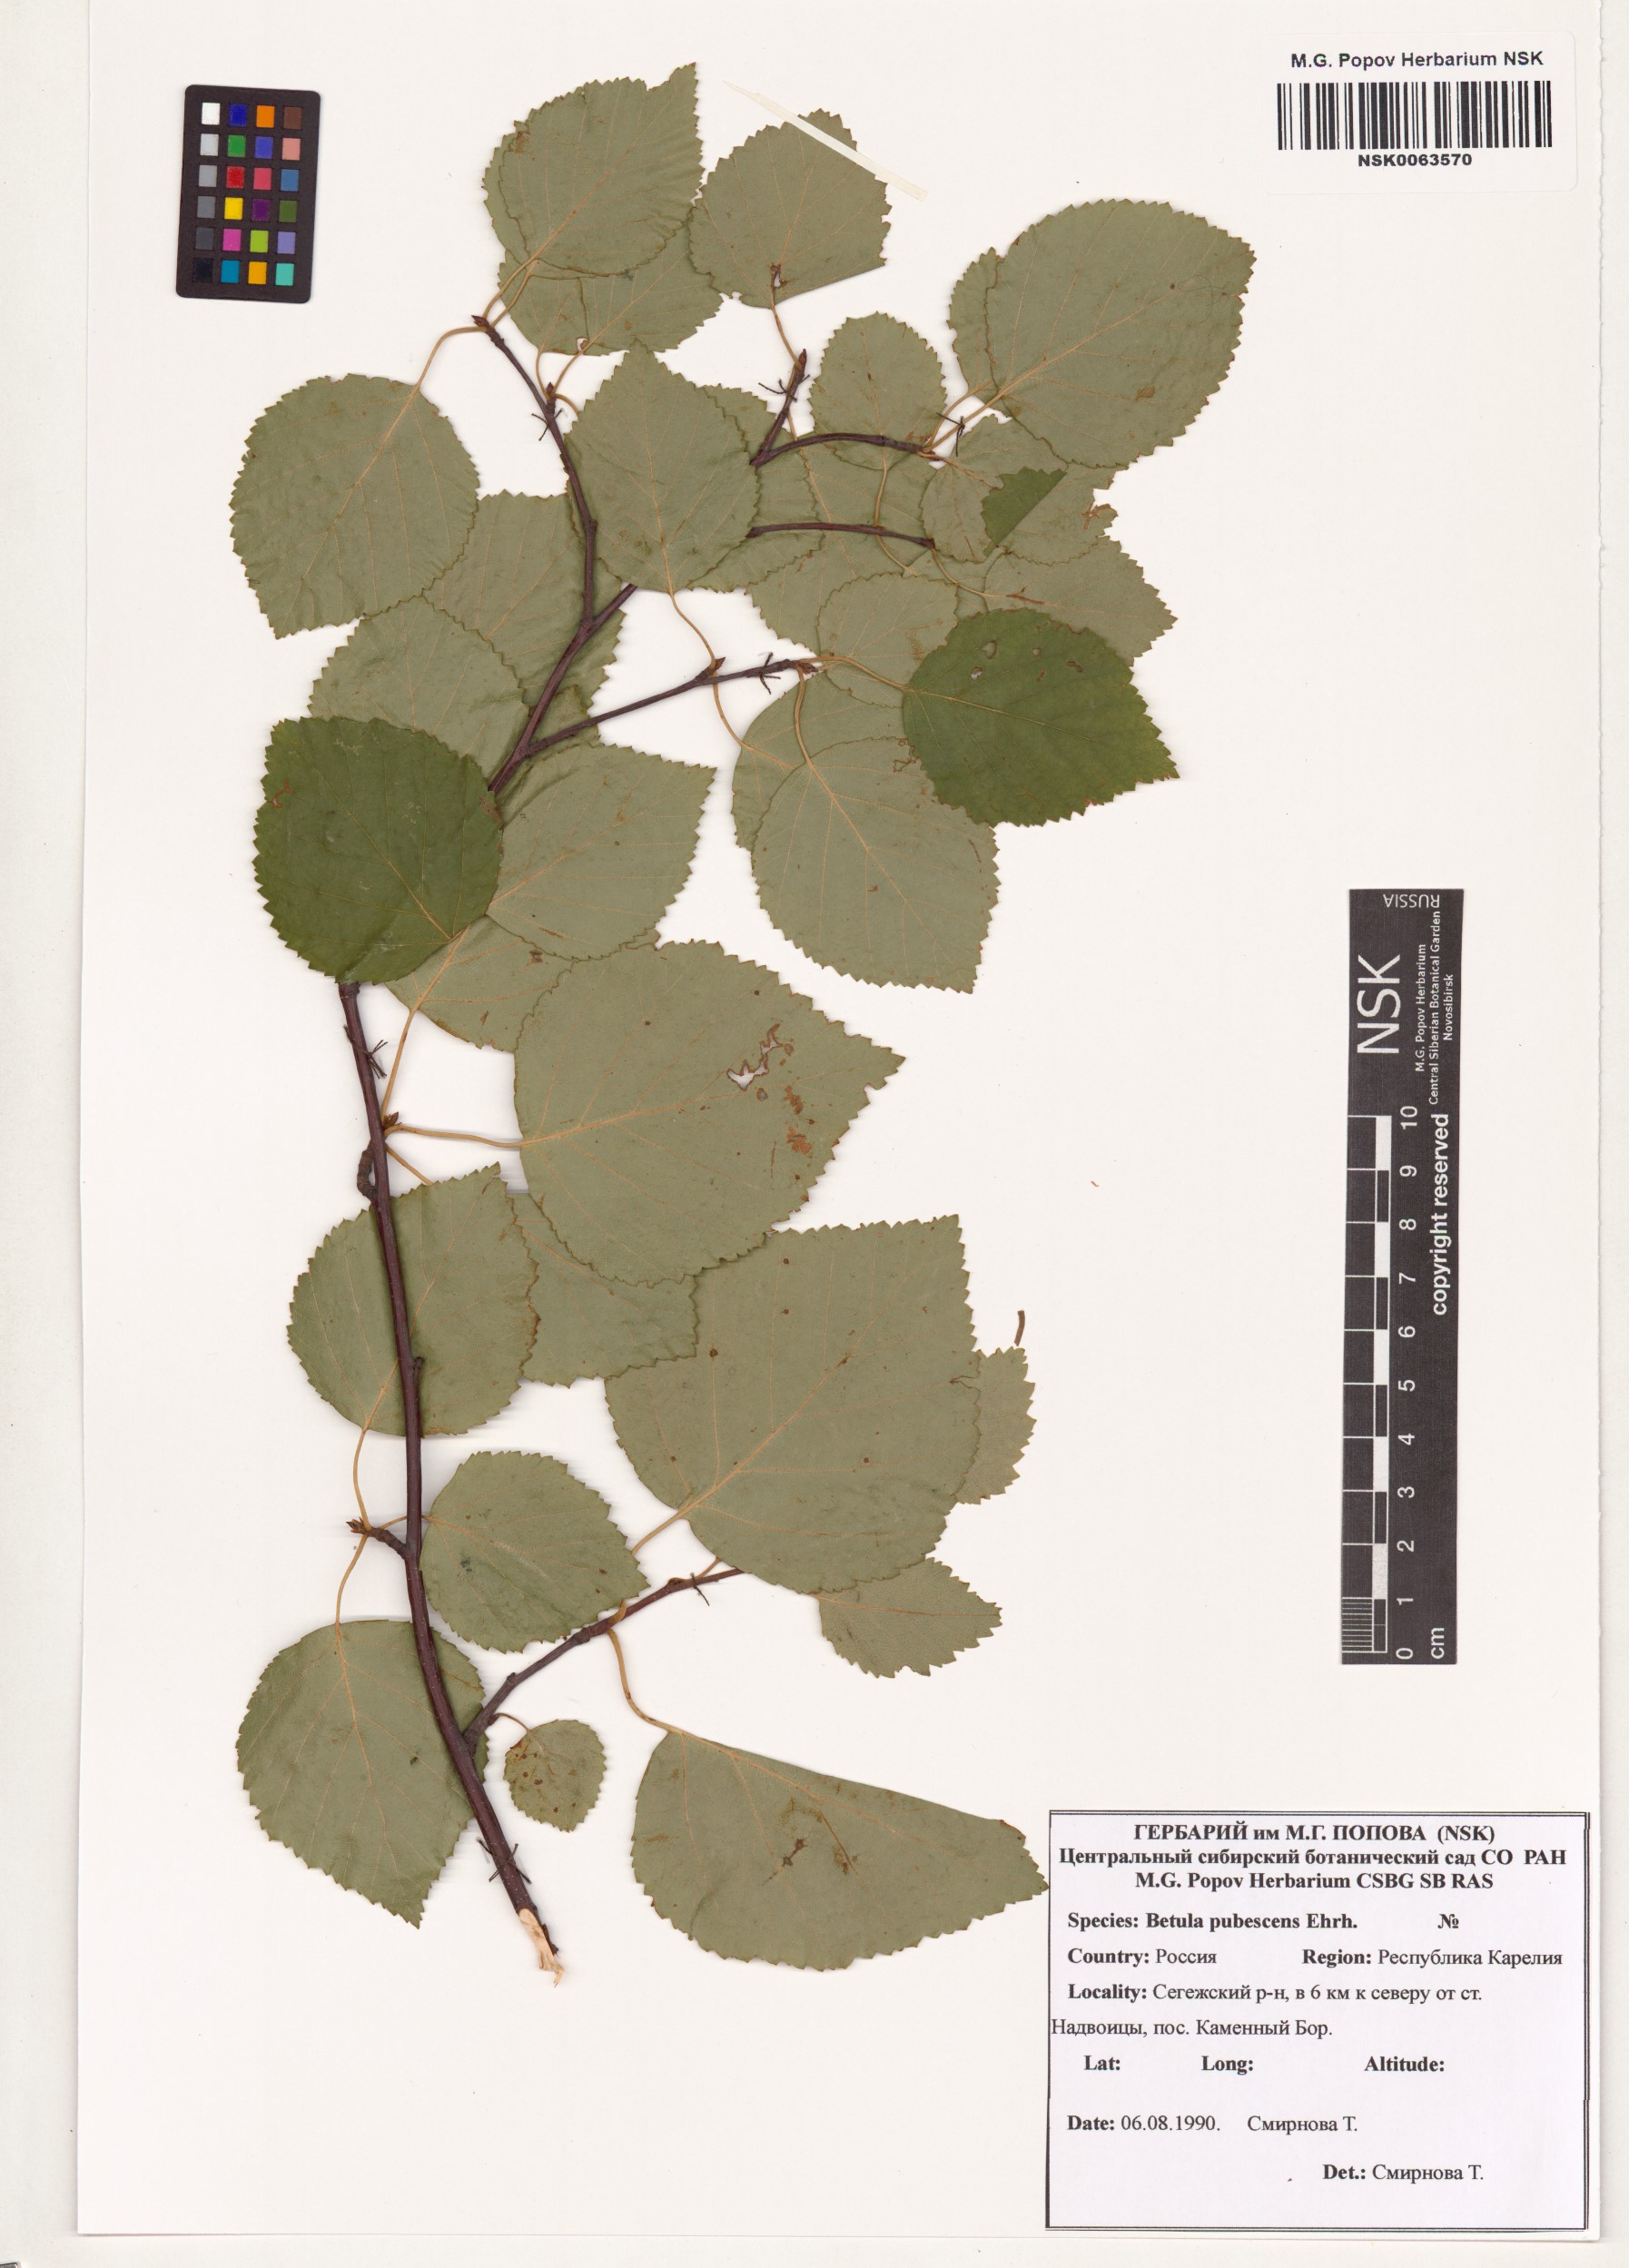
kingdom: Plantae
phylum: Tracheophyta
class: Magnoliopsida
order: Fagales
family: Betulaceae
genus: Betula
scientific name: Betula pubescens
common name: Downy birch
